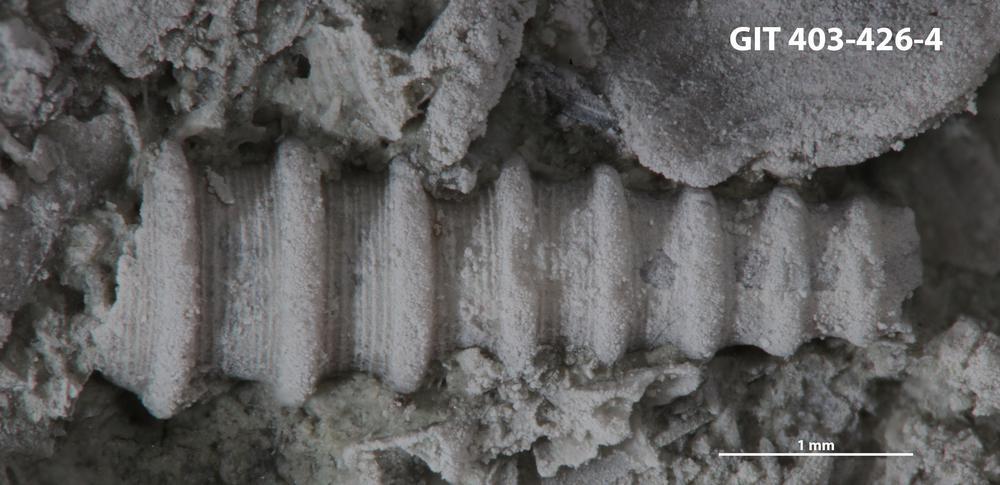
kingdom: Animalia
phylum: Mollusca
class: Cricoconarida
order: Tentaculitida
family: Tentaculitidae
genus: Tentaculites
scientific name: Tentaculites
